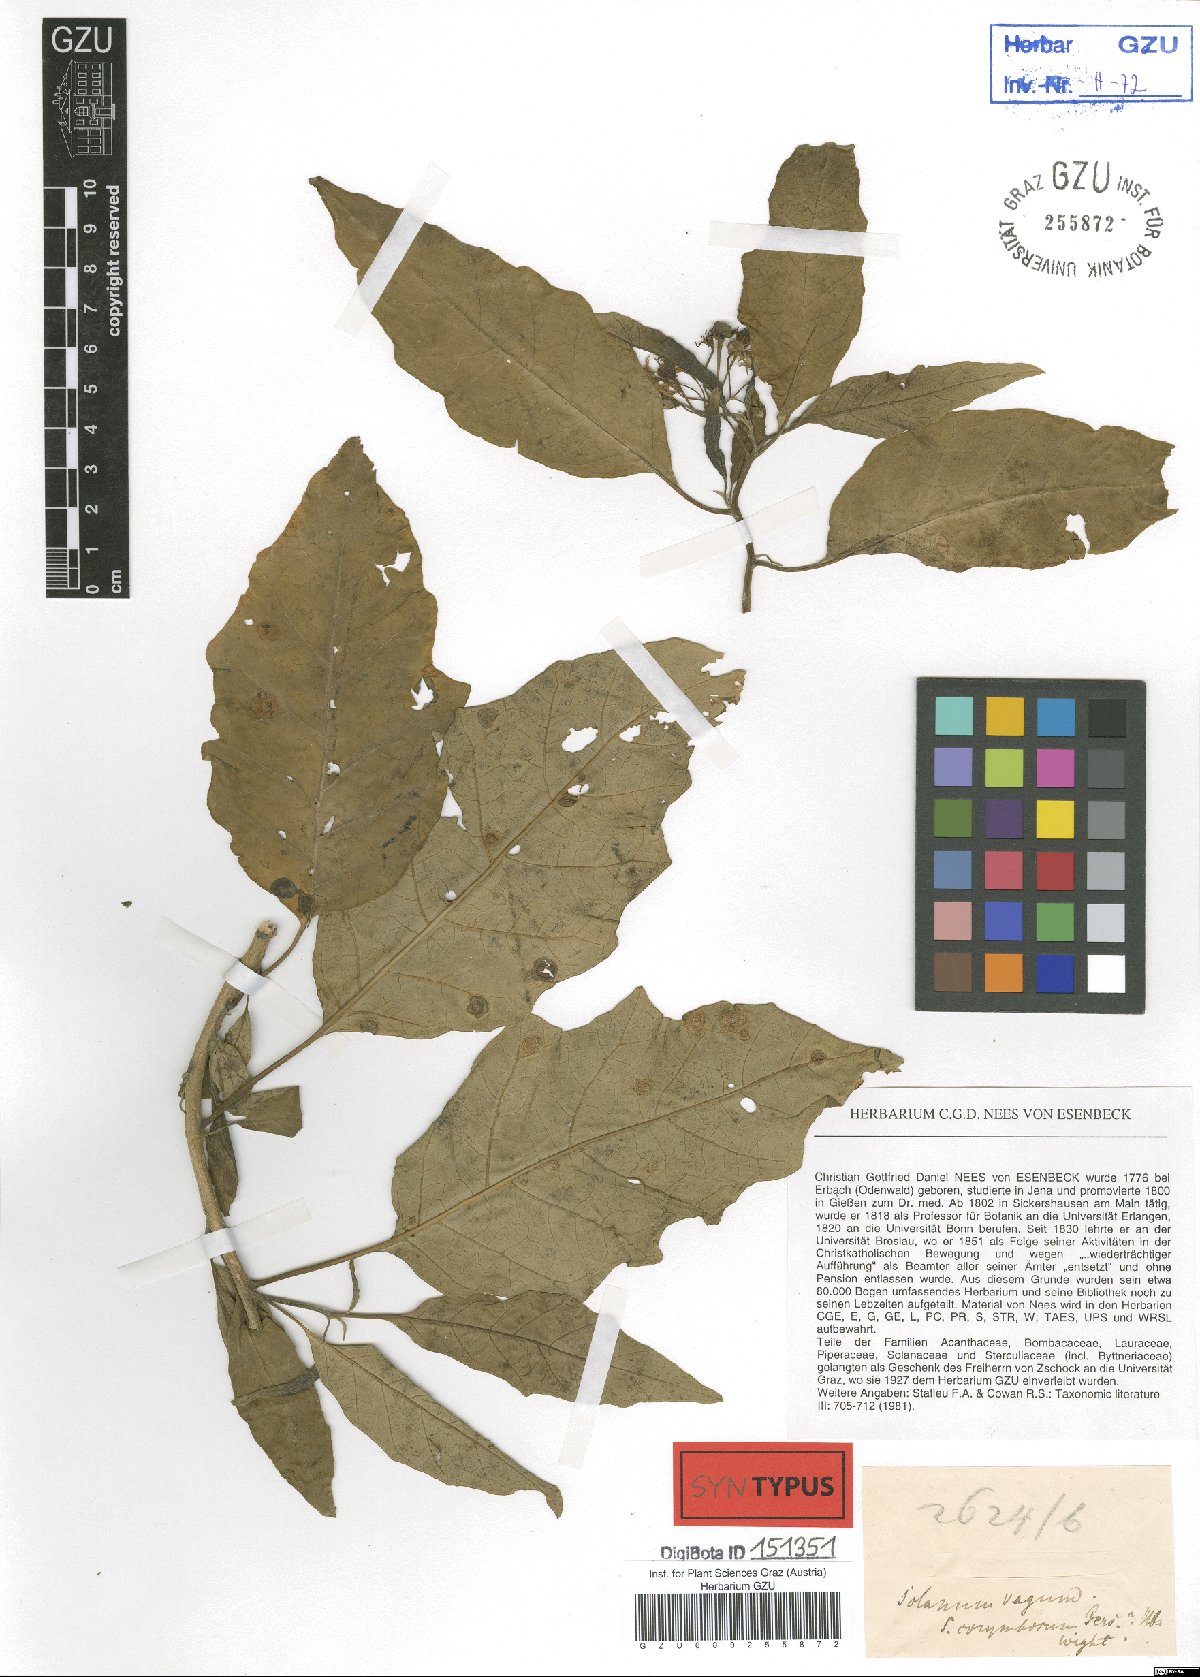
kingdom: Plantae
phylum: Tracheophyta
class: Magnoliopsida
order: Solanales
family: Solanaceae
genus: Solanum
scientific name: Solanum vagum
